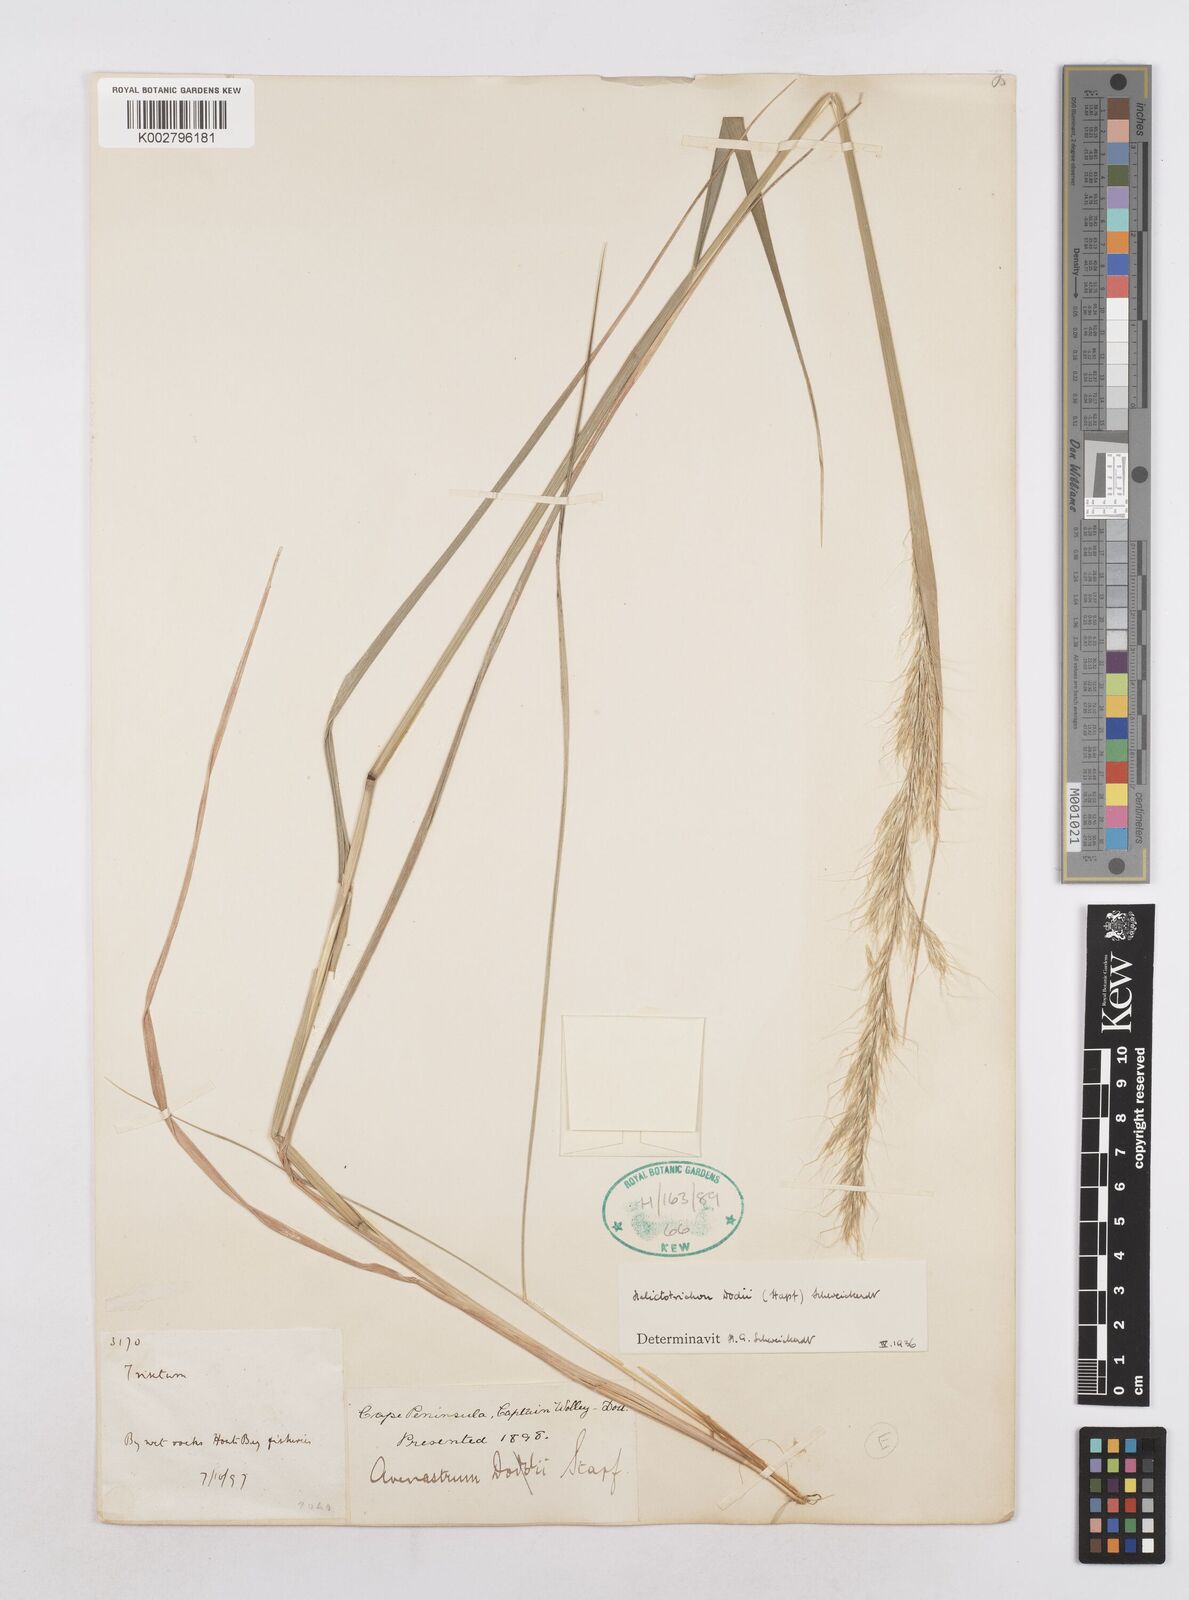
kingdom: Plantae
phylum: Tracheophyta
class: Liliopsida
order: Poales
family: Poaceae
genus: Trisetopsis
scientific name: Trisetopsis dodii
